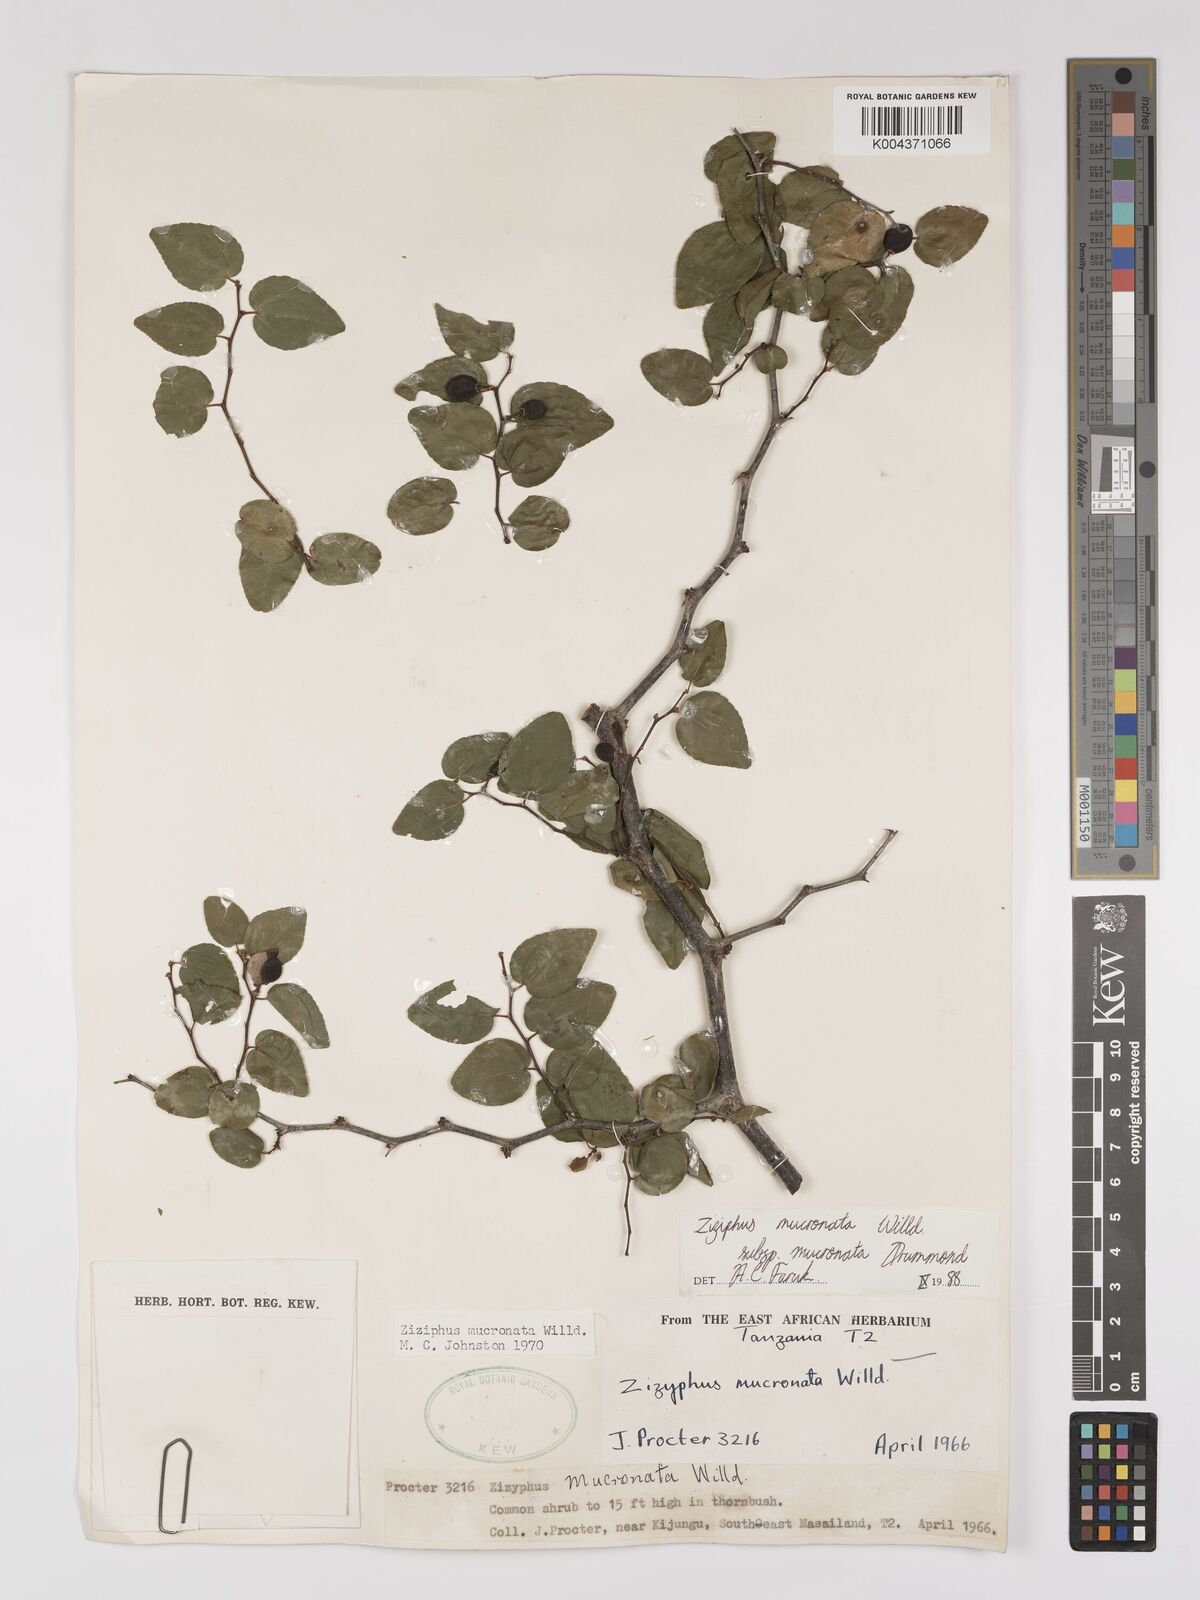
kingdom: Plantae
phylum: Tracheophyta
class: Magnoliopsida
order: Rosales
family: Rhamnaceae
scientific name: Rhamnaceae
